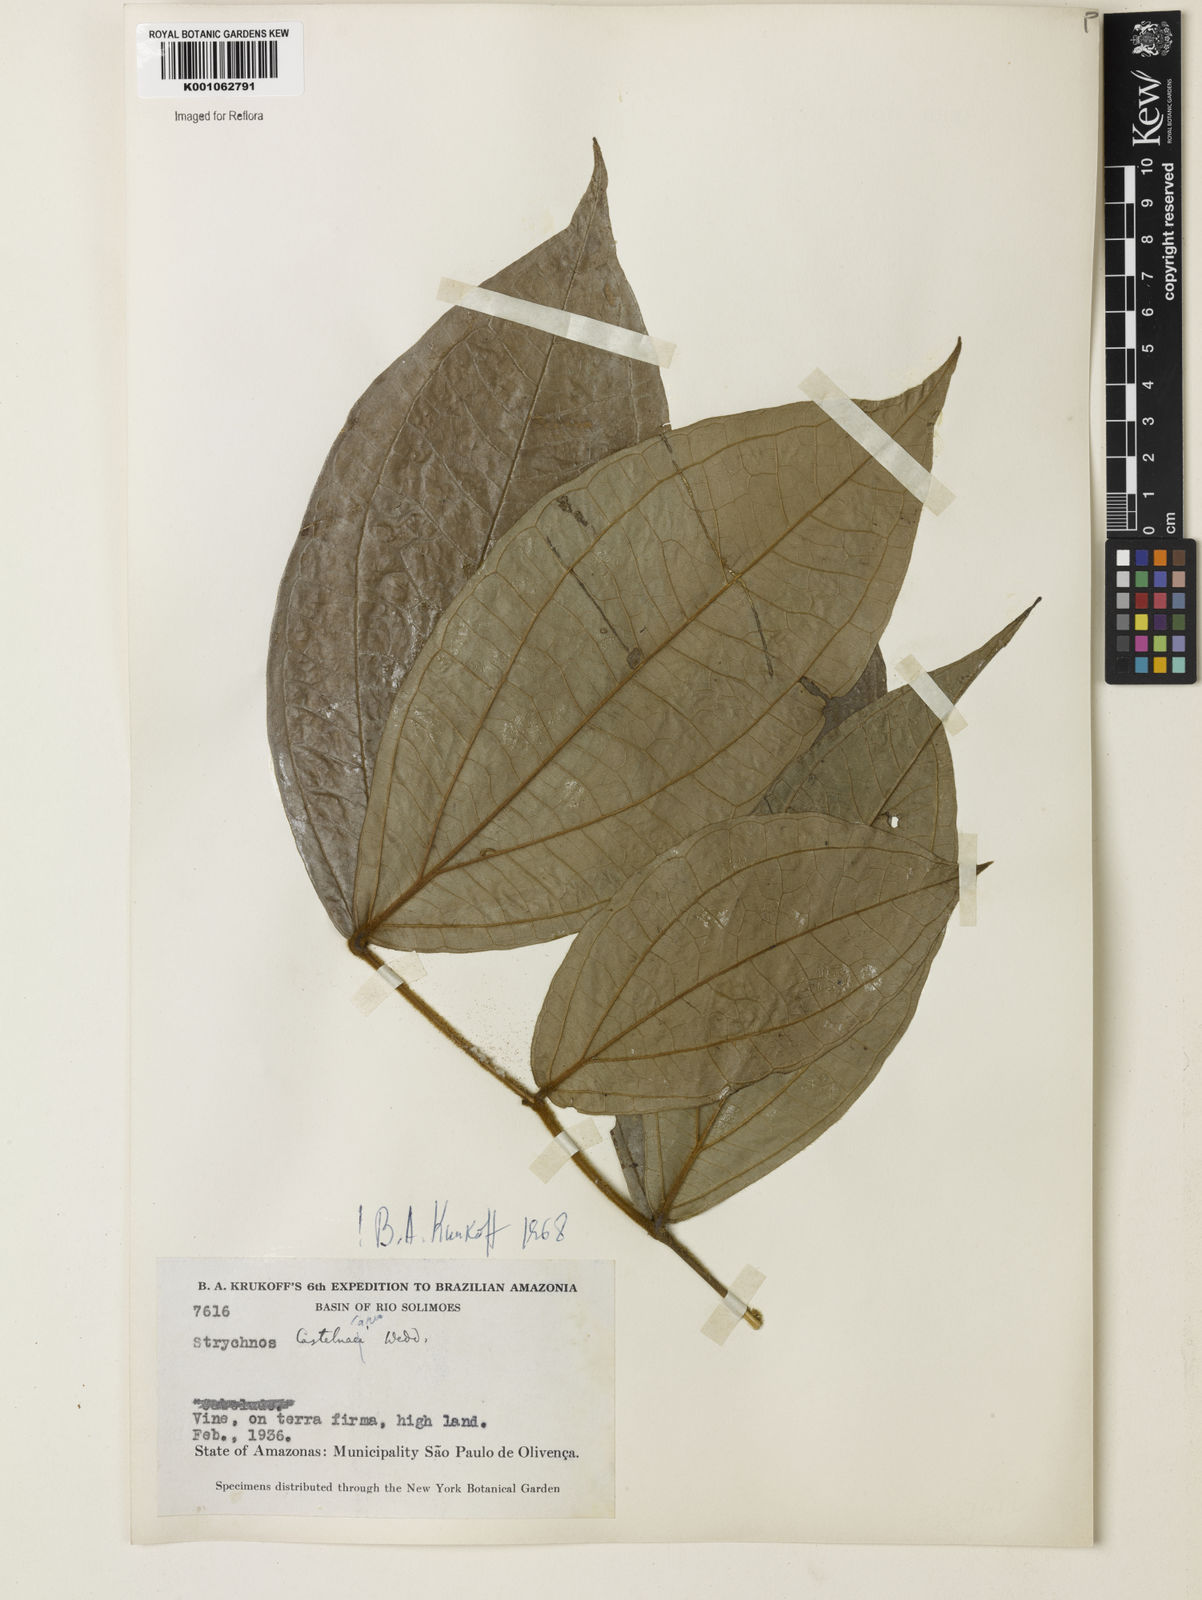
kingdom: Plantae
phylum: Tracheophyta
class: Magnoliopsida
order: Gentianales
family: Loganiaceae
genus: Strychnos
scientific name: Strychnos
